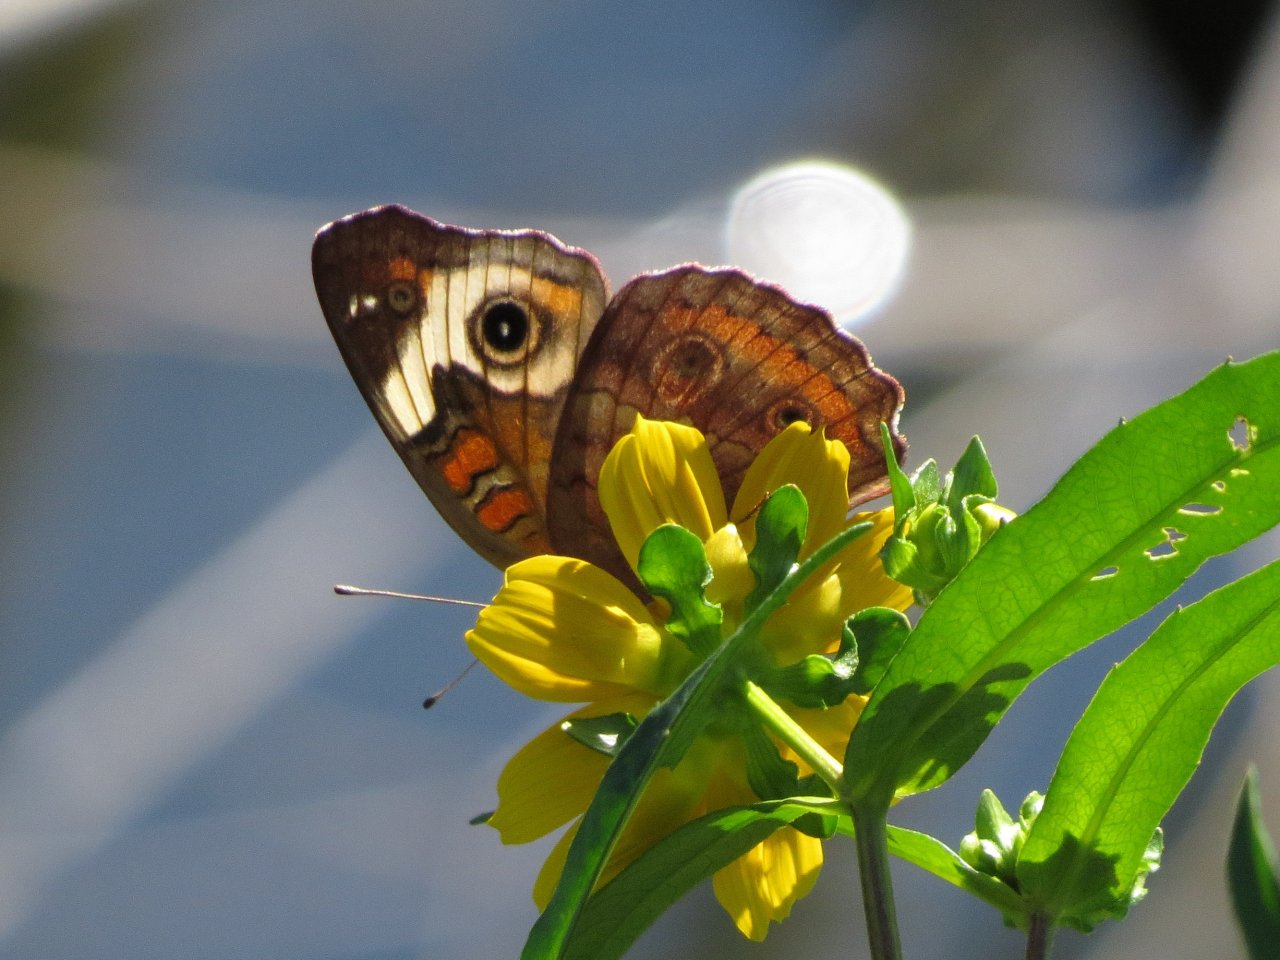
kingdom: Animalia
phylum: Arthropoda
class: Insecta
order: Lepidoptera
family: Nymphalidae
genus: Junonia
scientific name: Junonia coenia
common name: Common Buckeye
